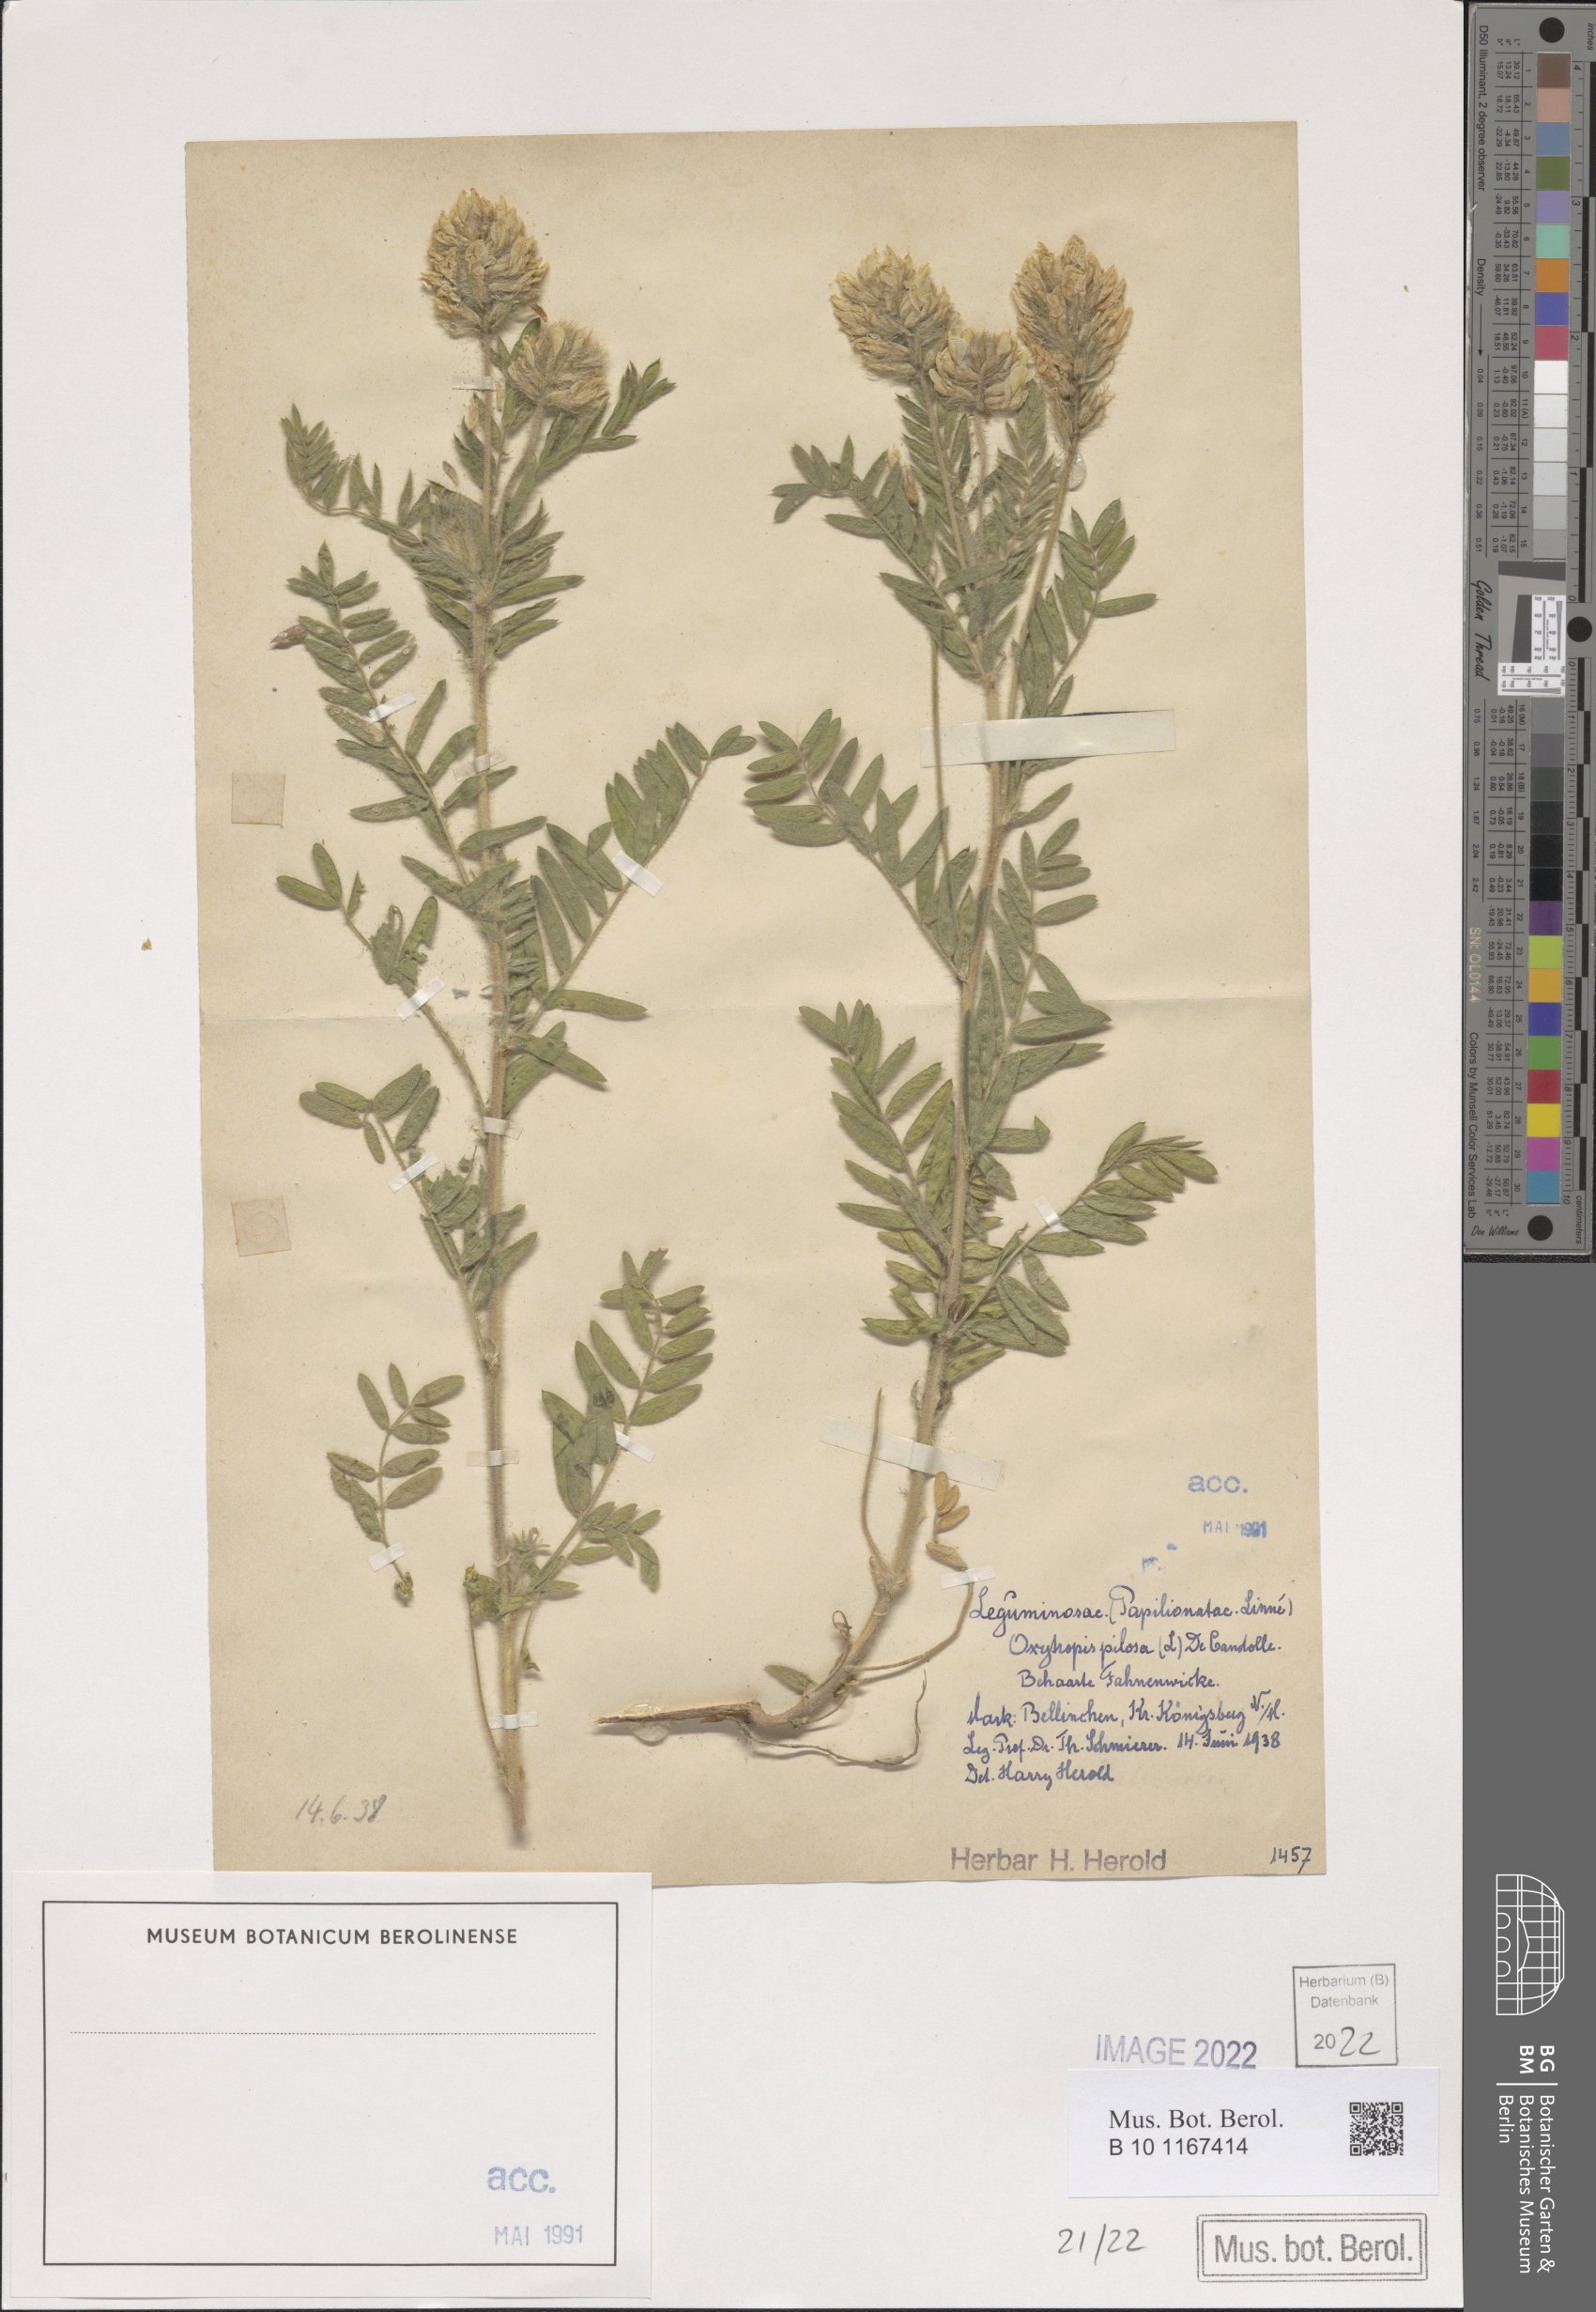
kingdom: Plantae
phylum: Tracheophyta
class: Magnoliopsida
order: Fabales
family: Fabaceae
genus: Oxytropis
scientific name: Oxytropis pilosa
